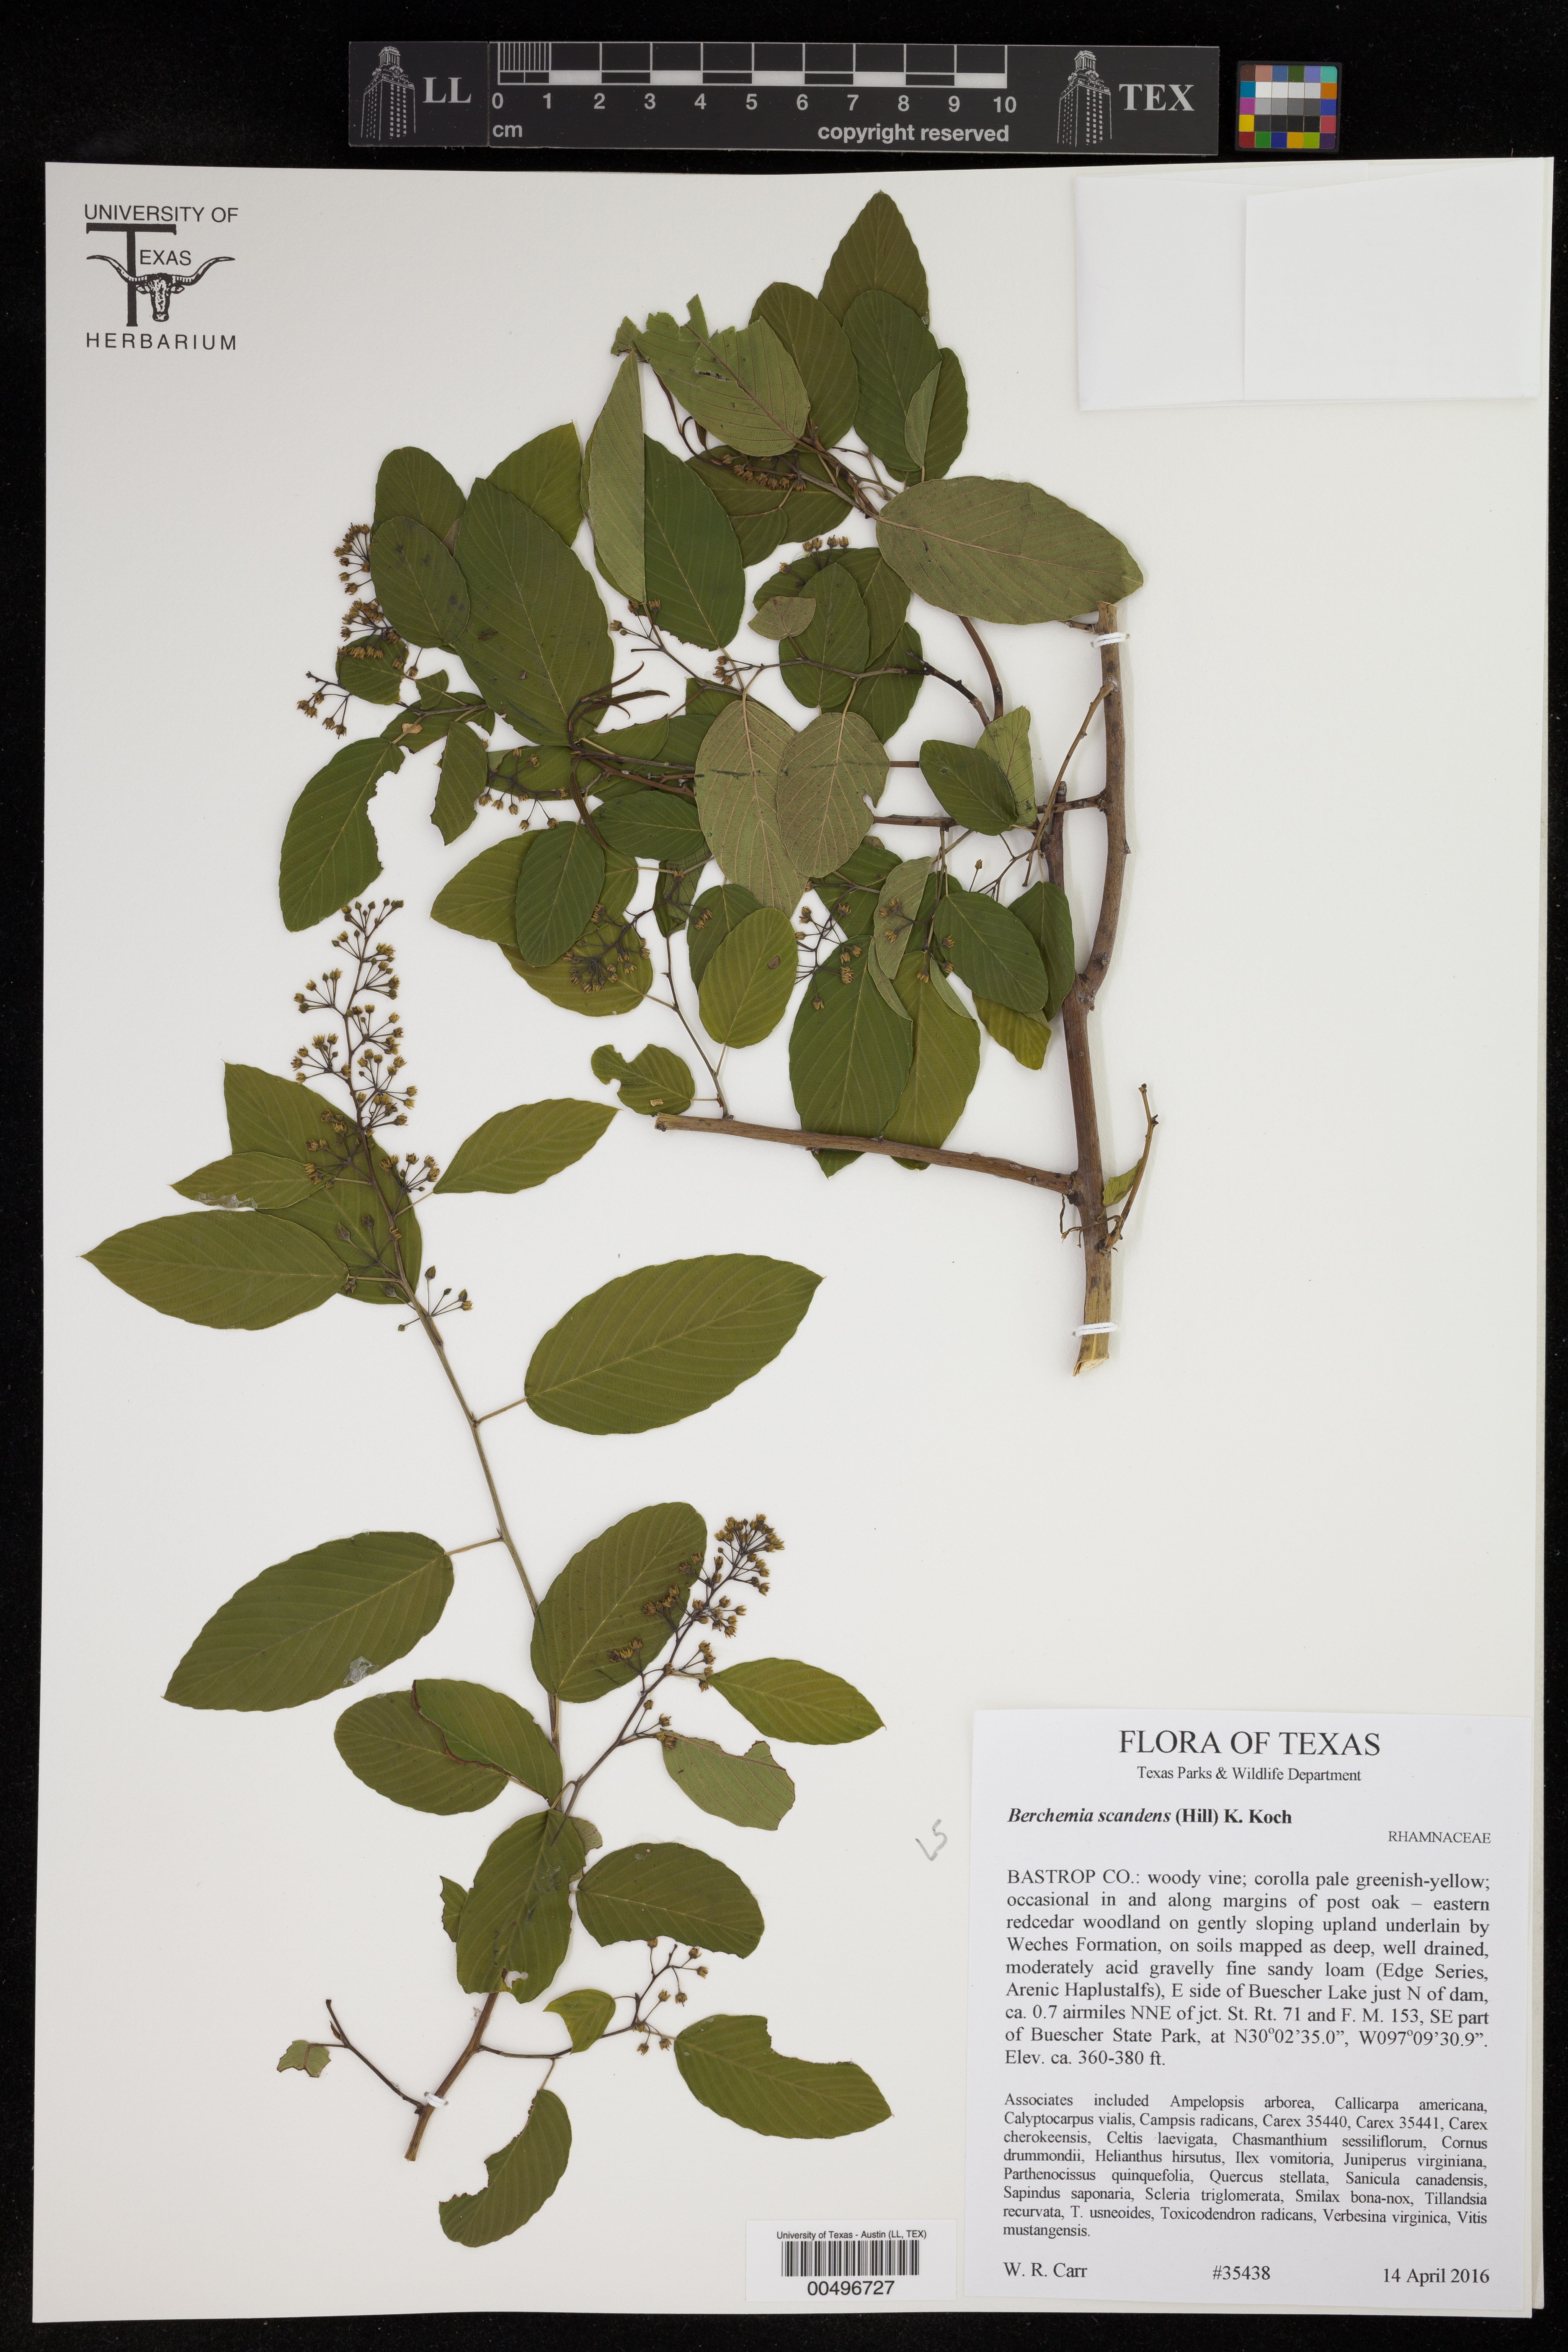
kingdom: Plantae
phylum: Tracheophyta
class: Magnoliopsida
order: Rosales
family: Rhamnaceae
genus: Berchemia
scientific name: Berchemia scandens
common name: Supplejack
